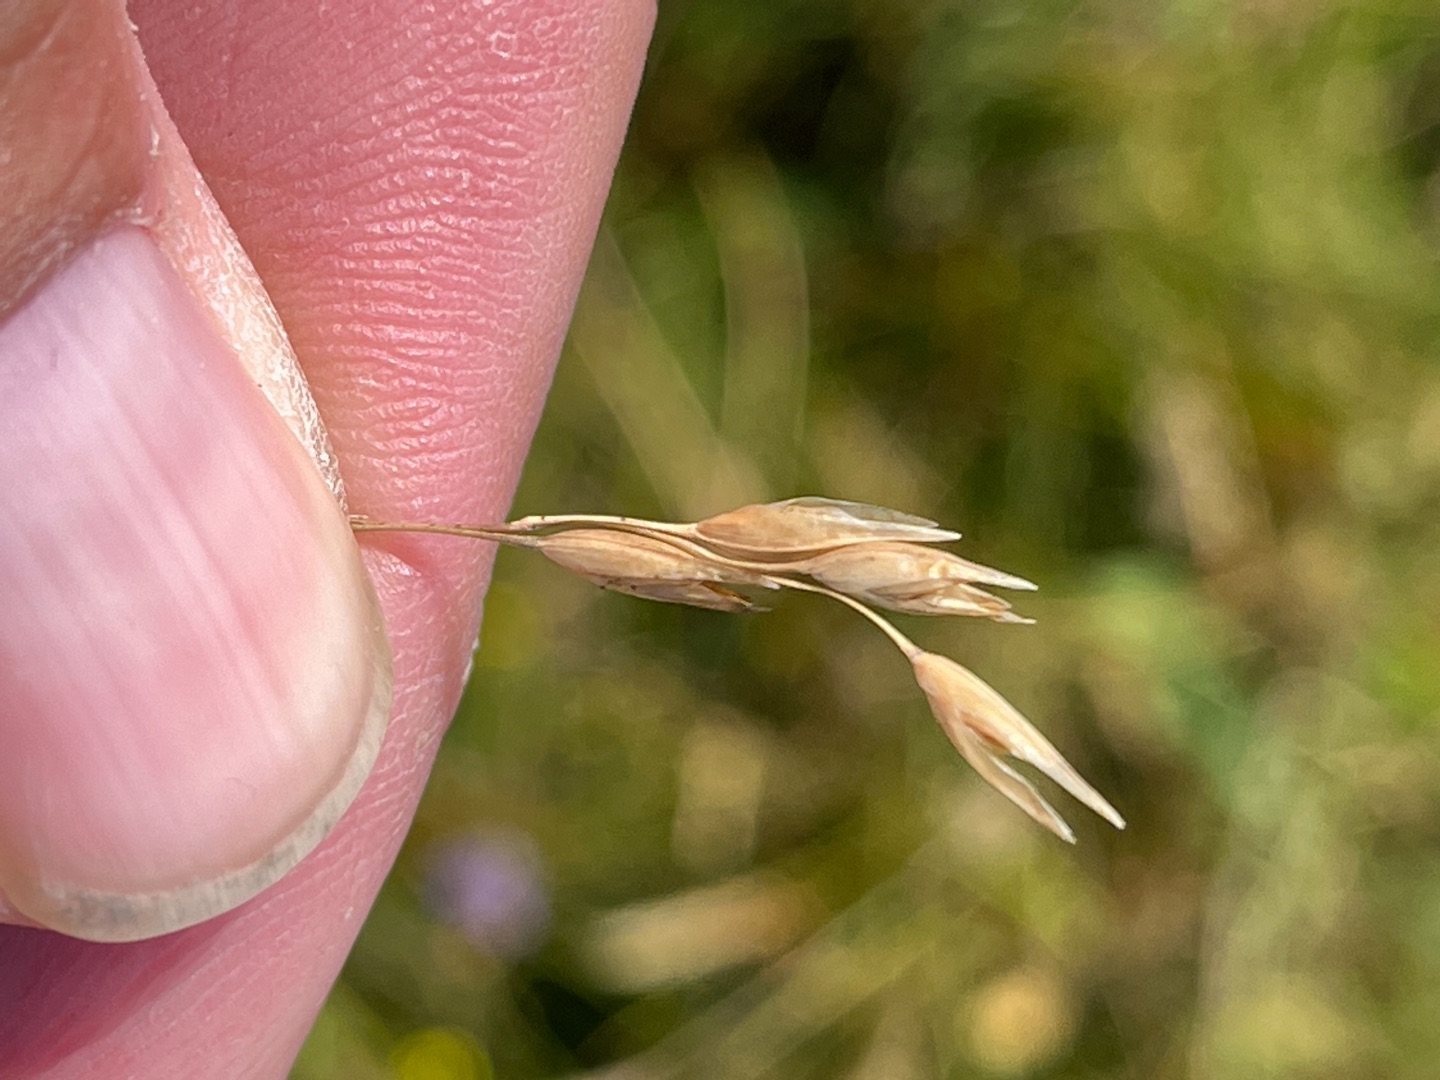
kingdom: Plantae
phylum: Tracheophyta
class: Liliopsida
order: Poales
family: Poaceae
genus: Danthonia
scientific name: Danthonia decumbens
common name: Tandbælg
